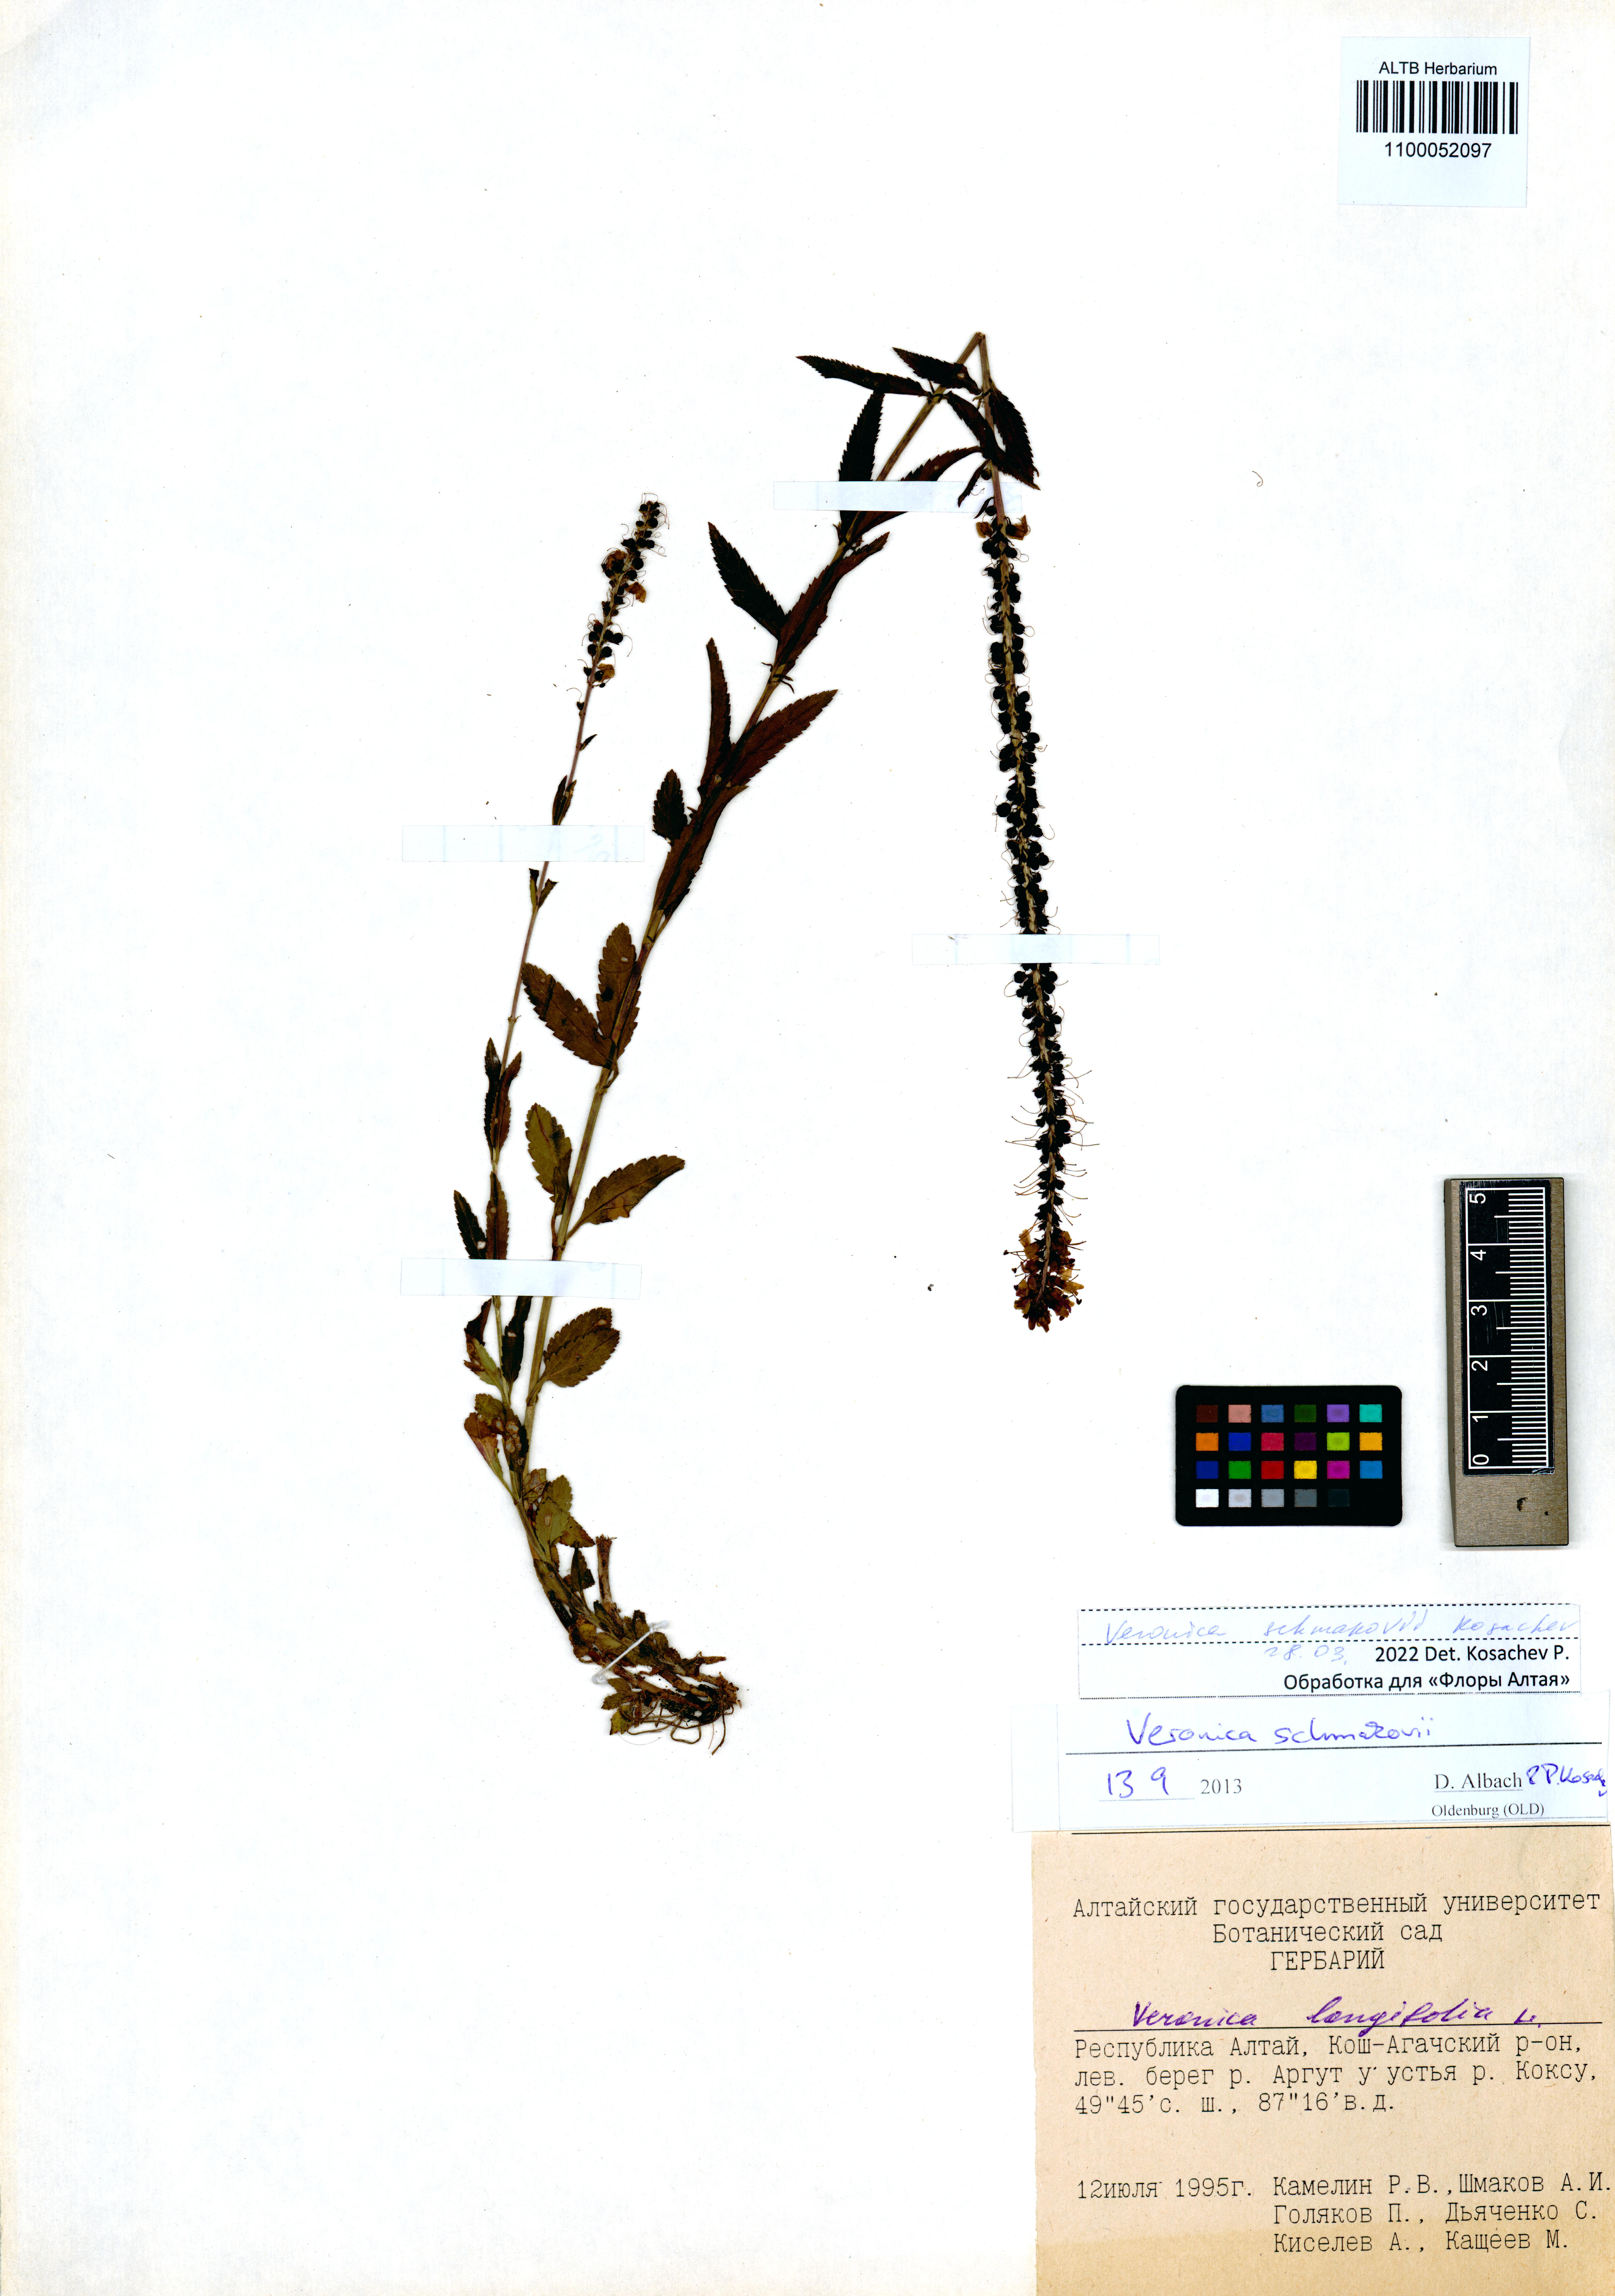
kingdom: Plantae
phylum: Tracheophyta
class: Magnoliopsida
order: Lamiales
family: Plantaginaceae
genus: Veronica
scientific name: Veronica schmakovii
